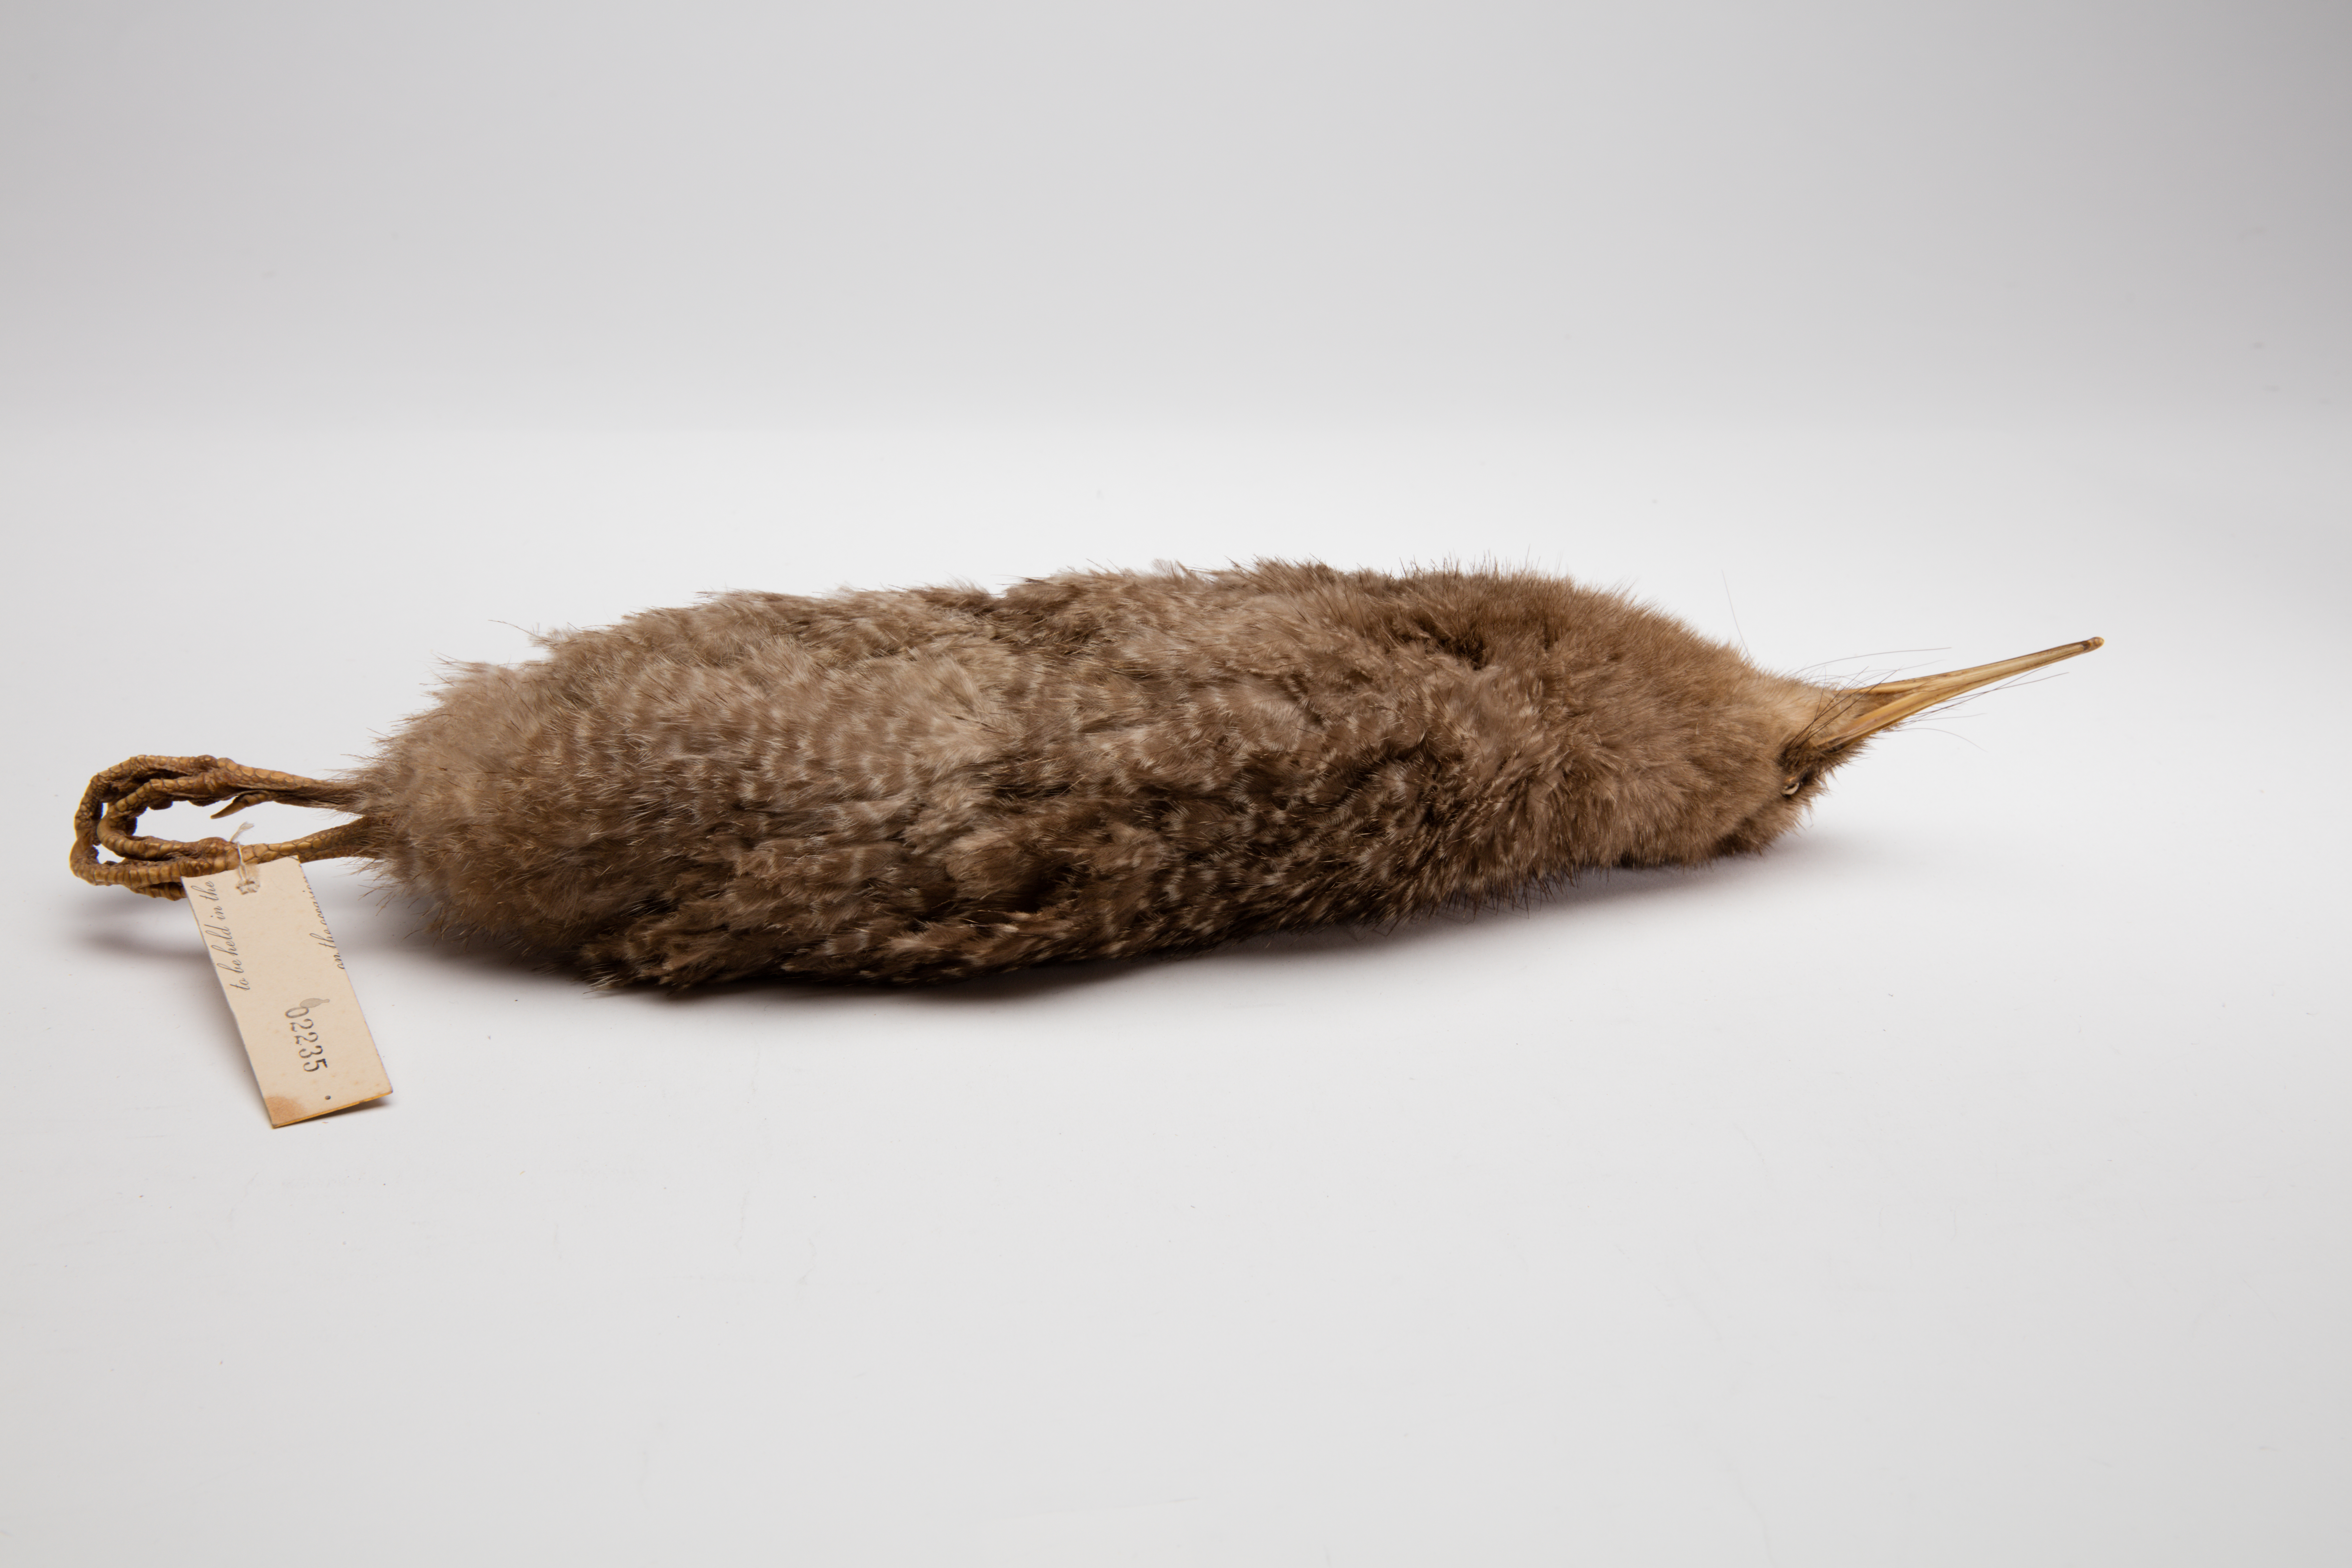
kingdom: Animalia
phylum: Chordata
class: Aves
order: Apterygiformes
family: Apterygidae
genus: Apteryx
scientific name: Apteryx owenii
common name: Little spotted kiwi
